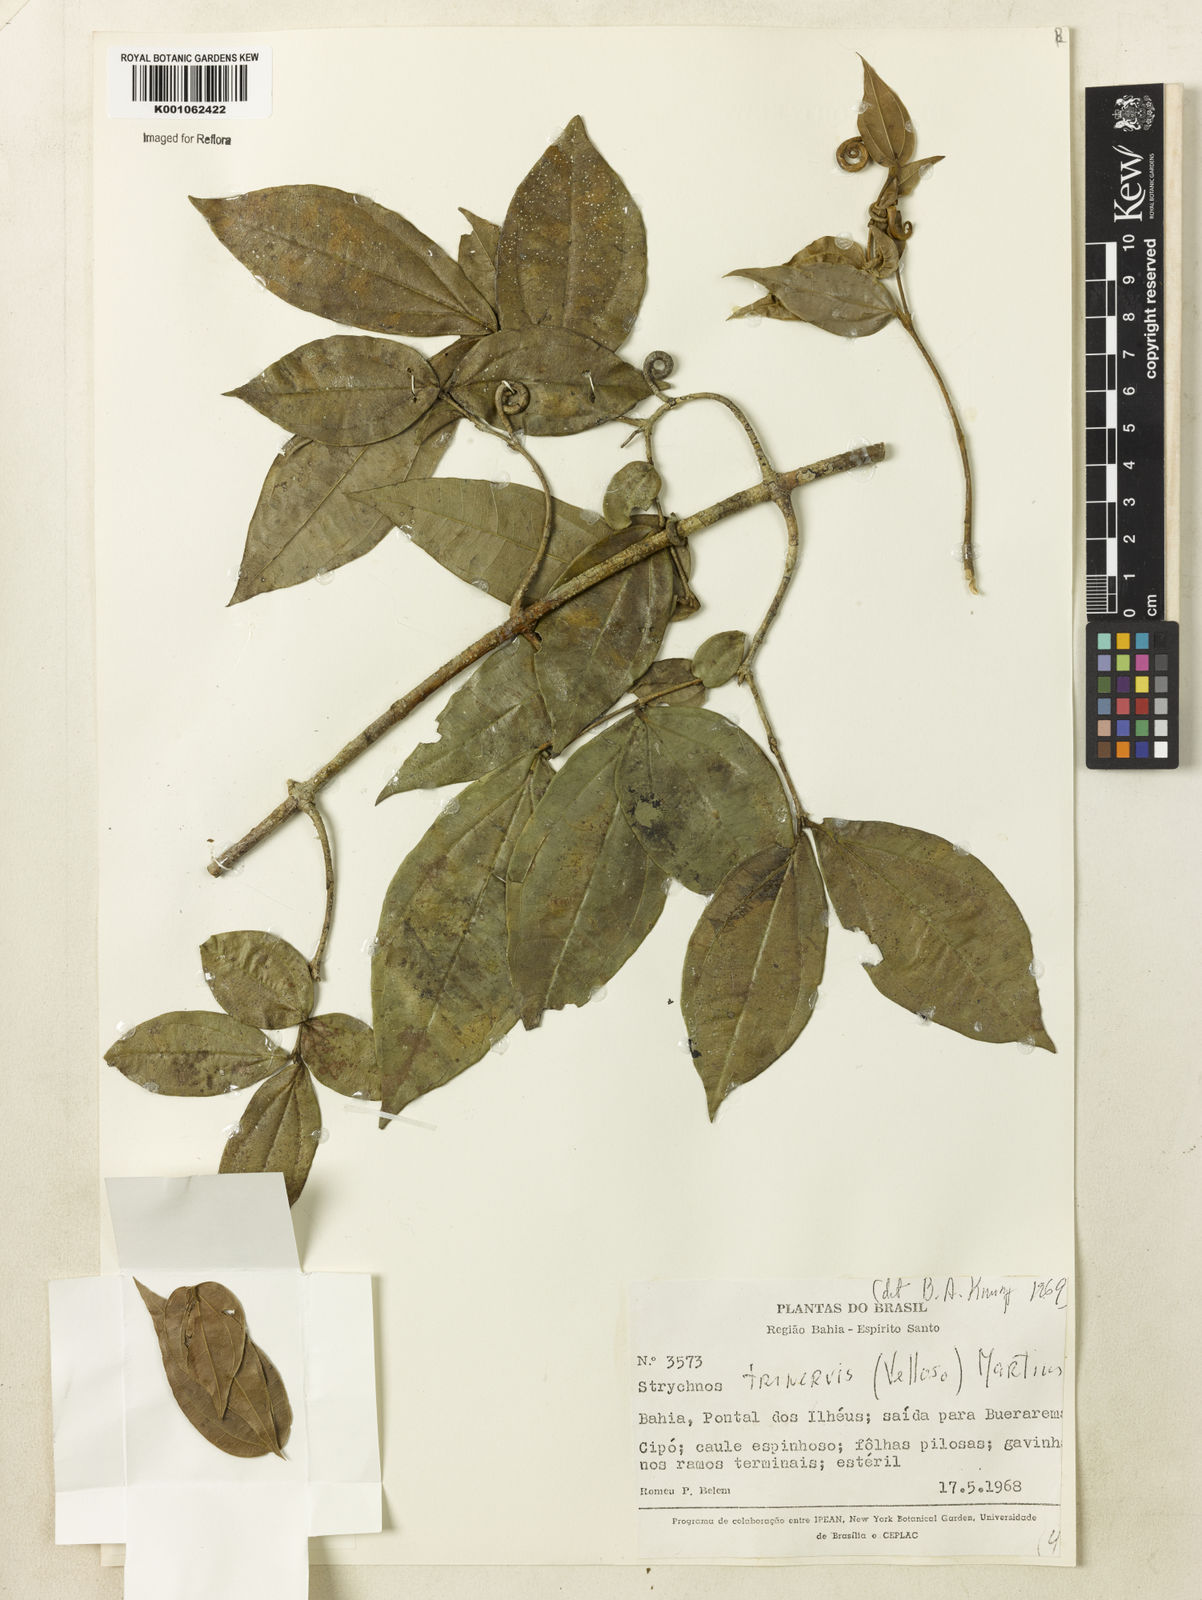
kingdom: Plantae
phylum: Tracheophyta
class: Magnoliopsida
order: Gentianales
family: Loganiaceae
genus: Strychnos
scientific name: Strychnos
